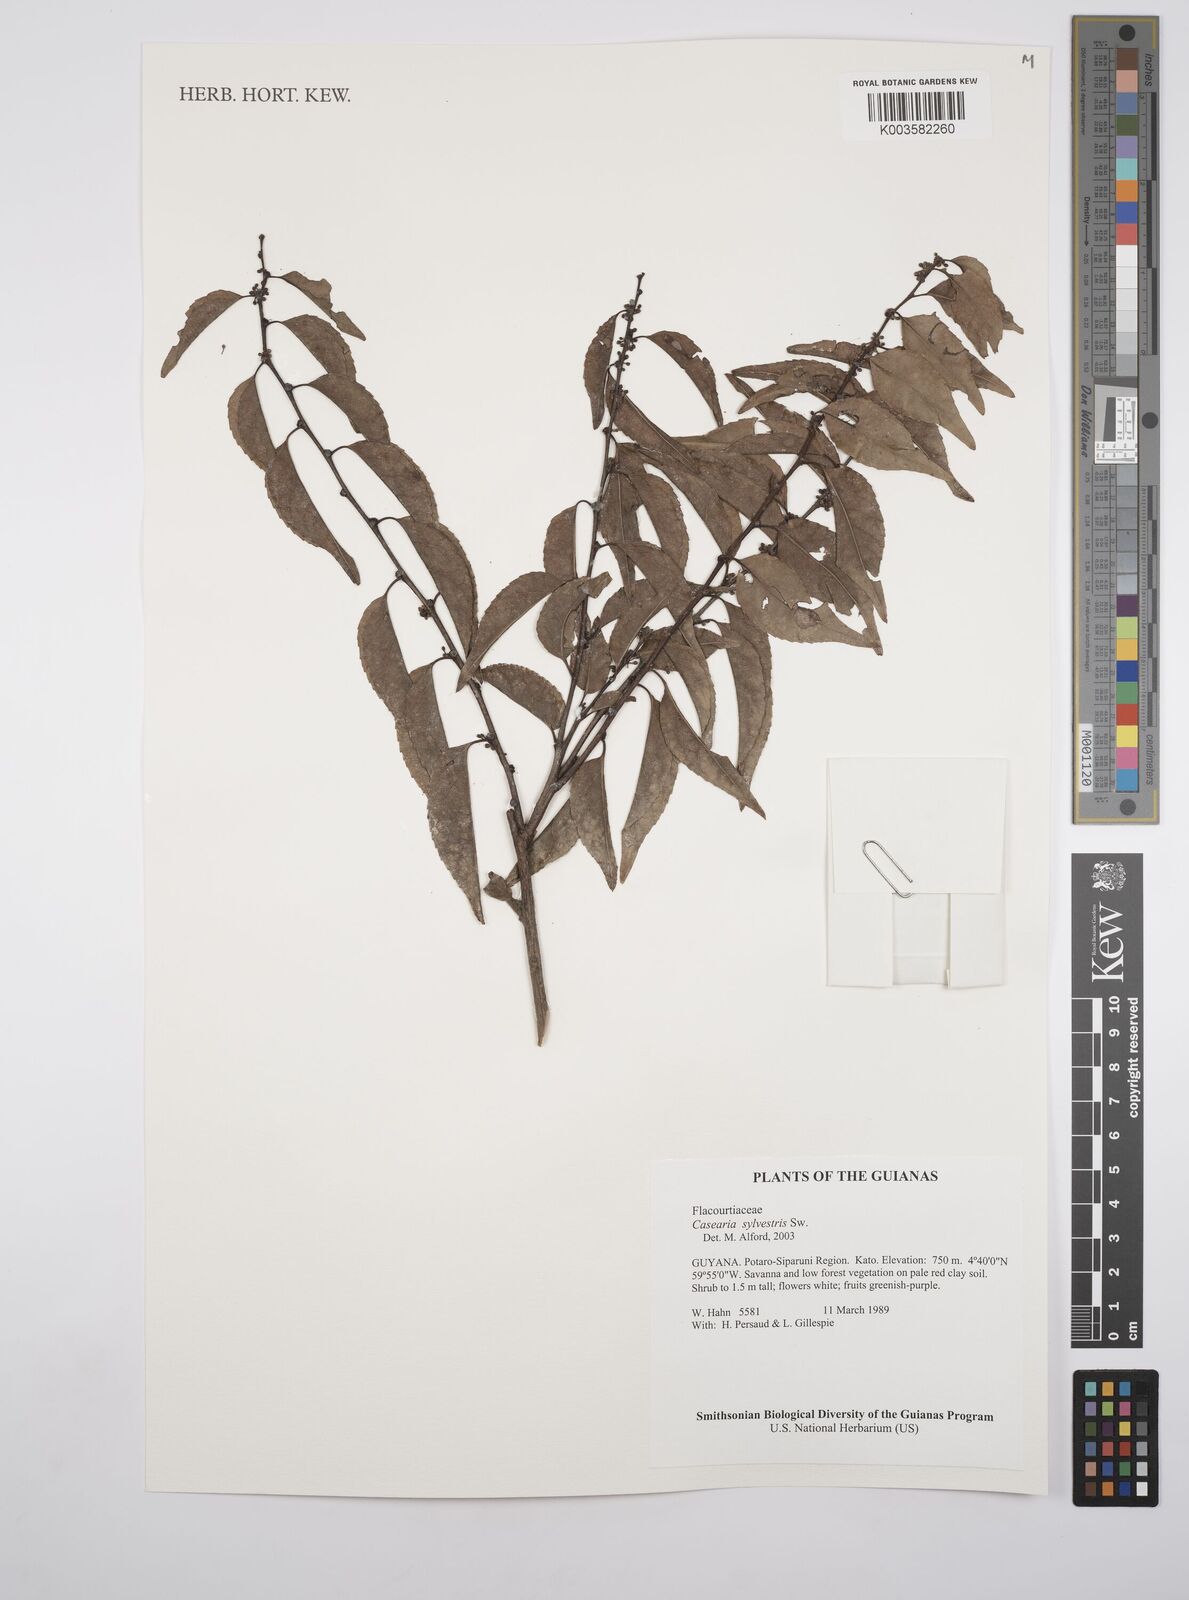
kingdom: Plantae
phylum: Tracheophyta
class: Magnoliopsida
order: Malpighiales
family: Salicaceae
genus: Casearia
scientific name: Casearia sylvestris
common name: Wild sage
